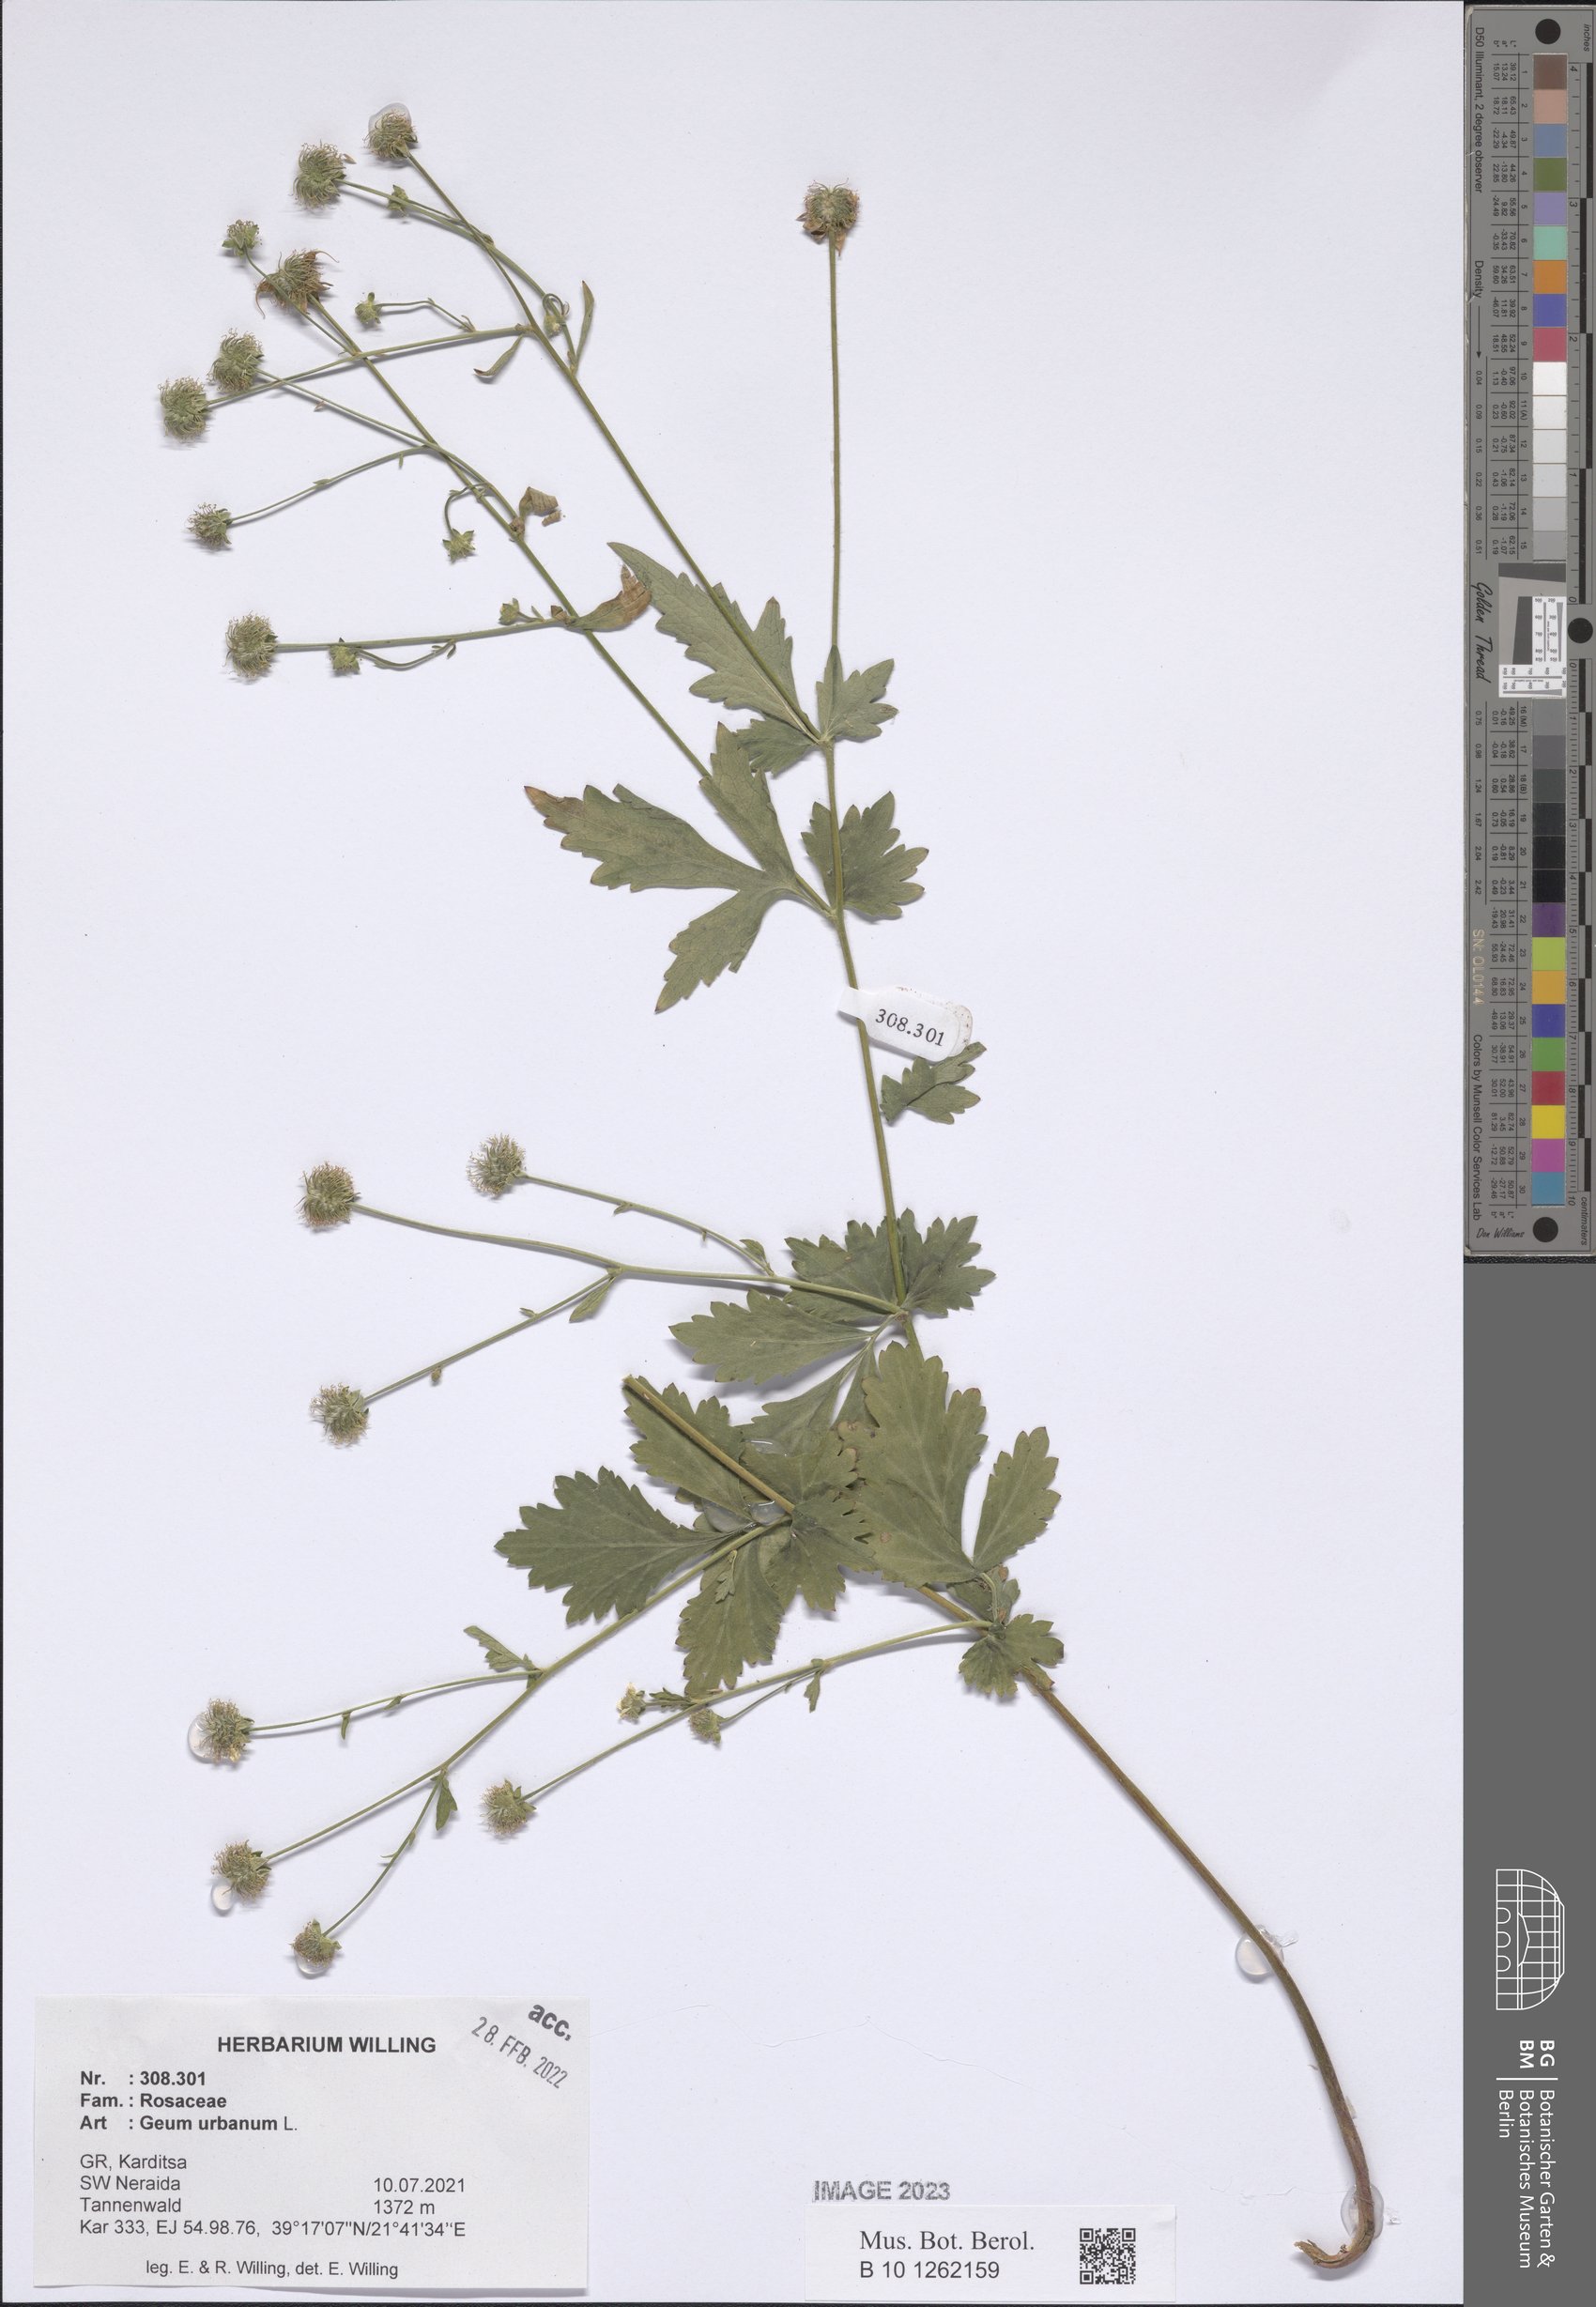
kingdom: Plantae
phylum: Tracheophyta
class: Magnoliopsida
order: Rosales
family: Rosaceae
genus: Geum
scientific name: Geum urbanum
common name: Wood avens
